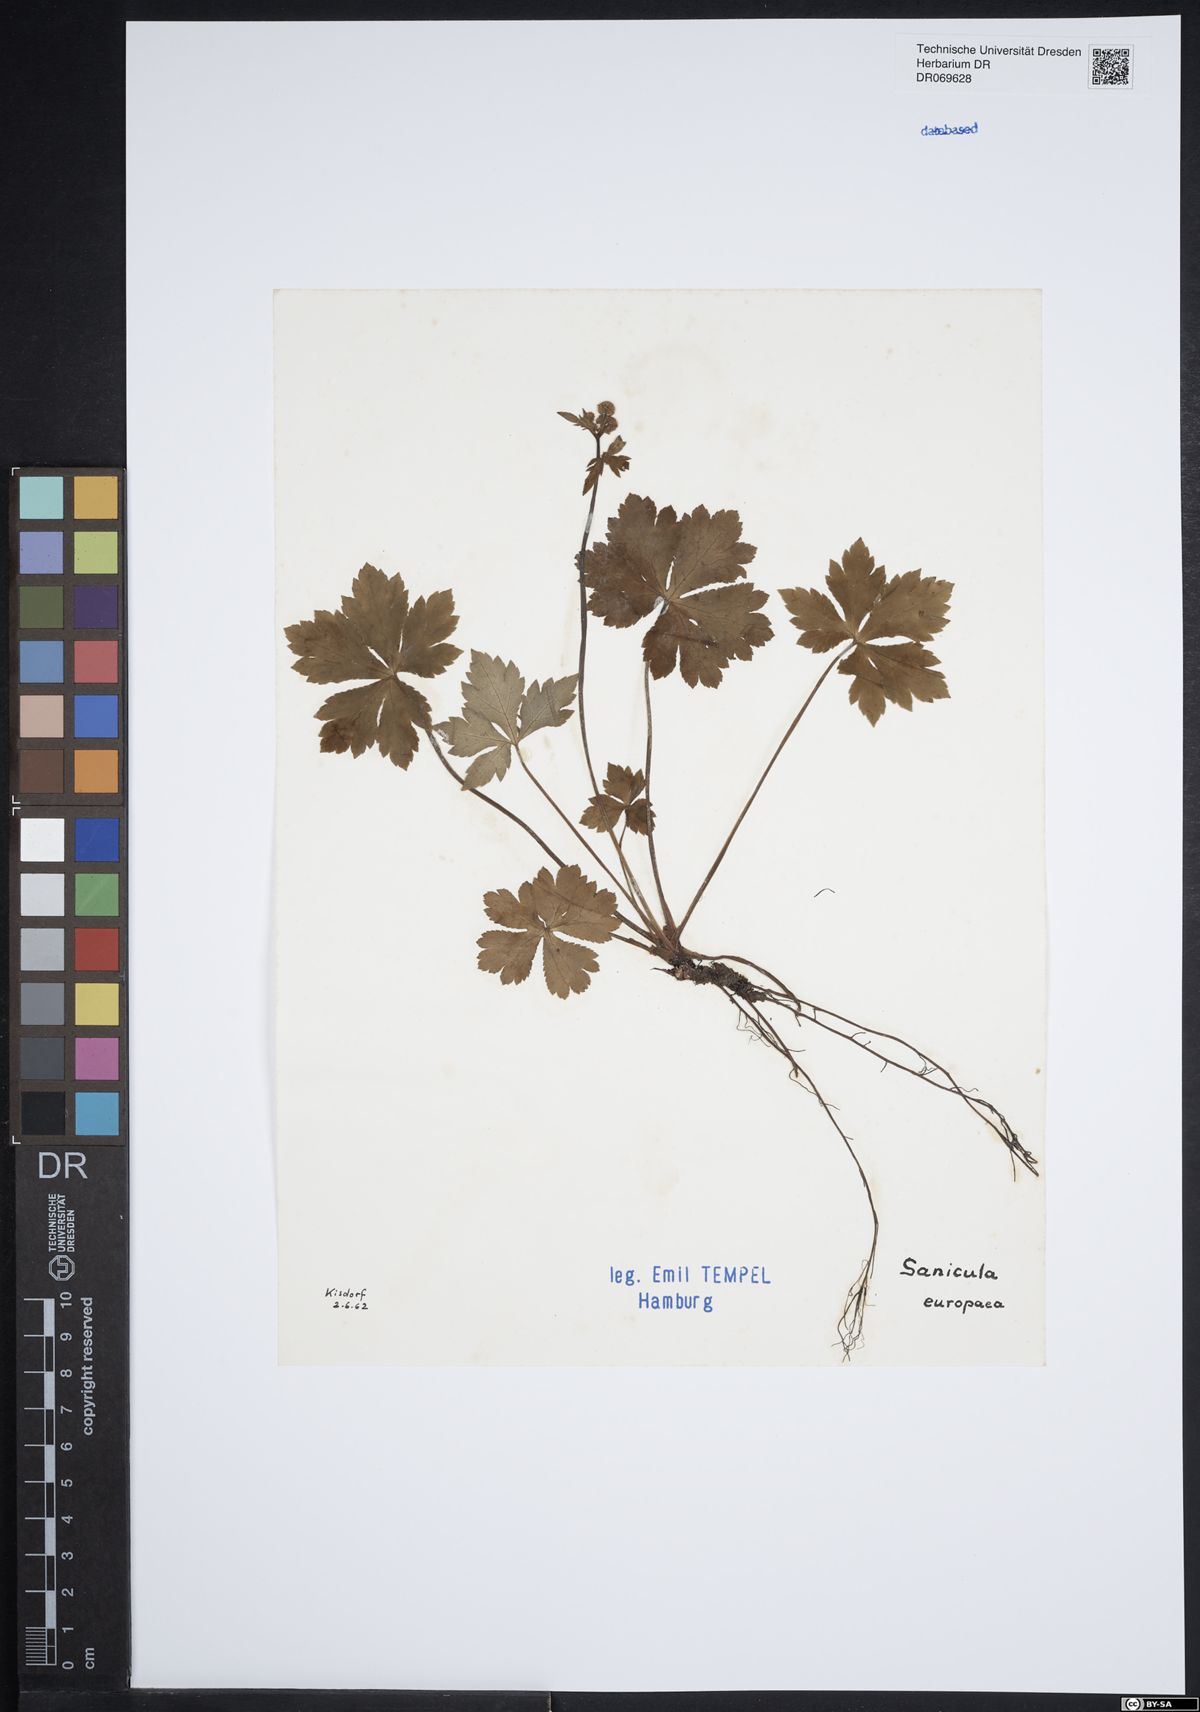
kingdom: Plantae
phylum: Tracheophyta
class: Magnoliopsida
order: Apiales
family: Apiaceae
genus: Sanicula
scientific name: Sanicula europaea
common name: Sanicle
